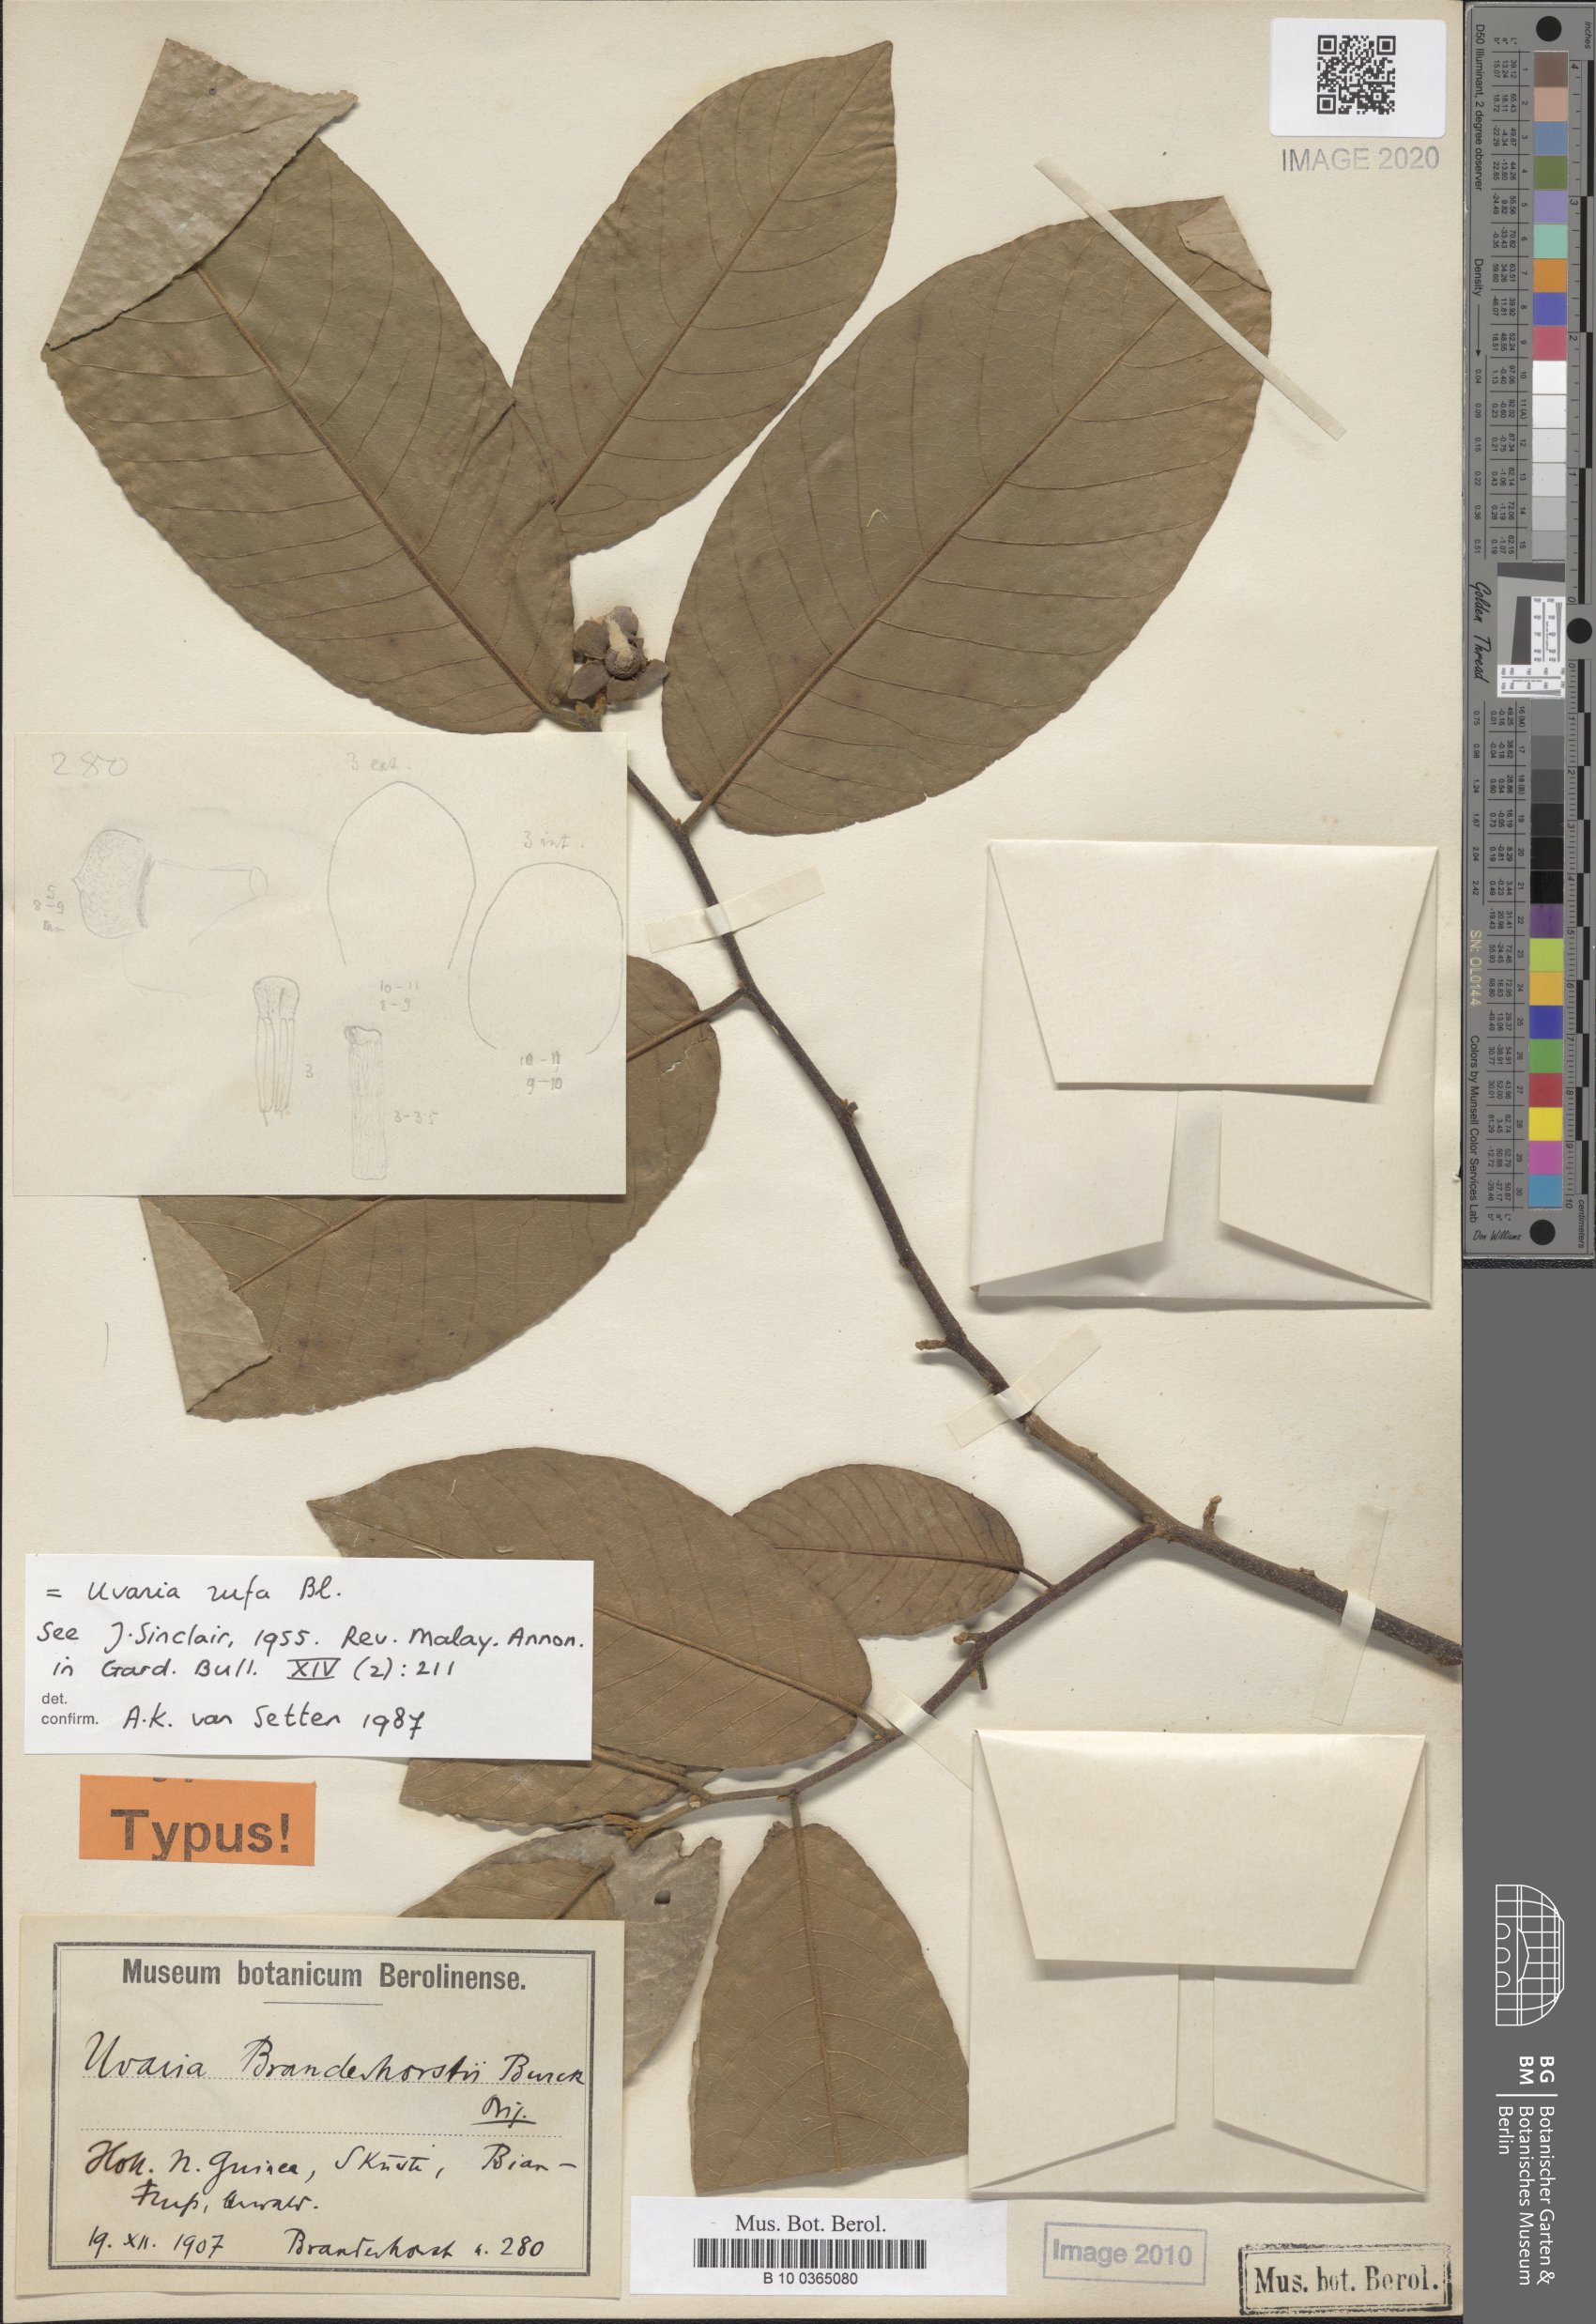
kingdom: Plantae
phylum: Tracheophyta
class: Magnoliopsida
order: Magnoliales
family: Annonaceae
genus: Uvaria
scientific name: Uvaria rufa
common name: Torres strait scrambler
